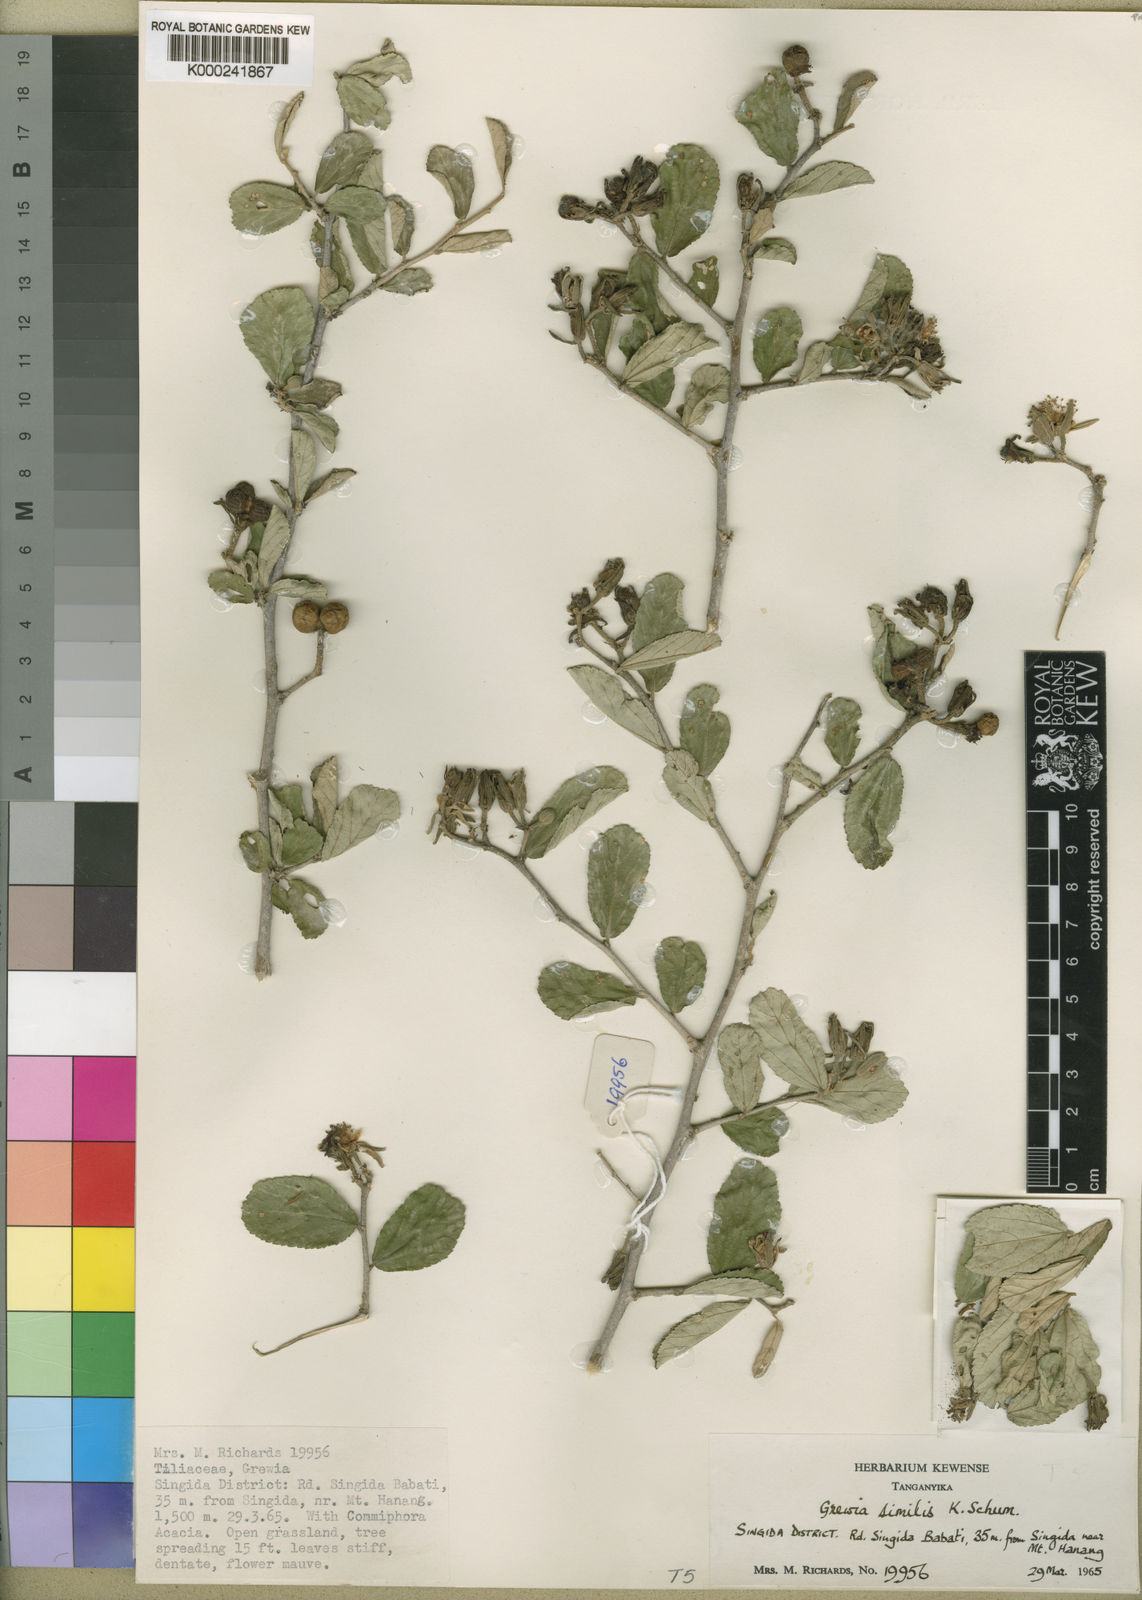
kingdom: Plantae
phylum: Tracheophyta
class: Magnoliopsida
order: Malvales
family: Malvaceae
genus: Grewia
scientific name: Grewia similiopsis
